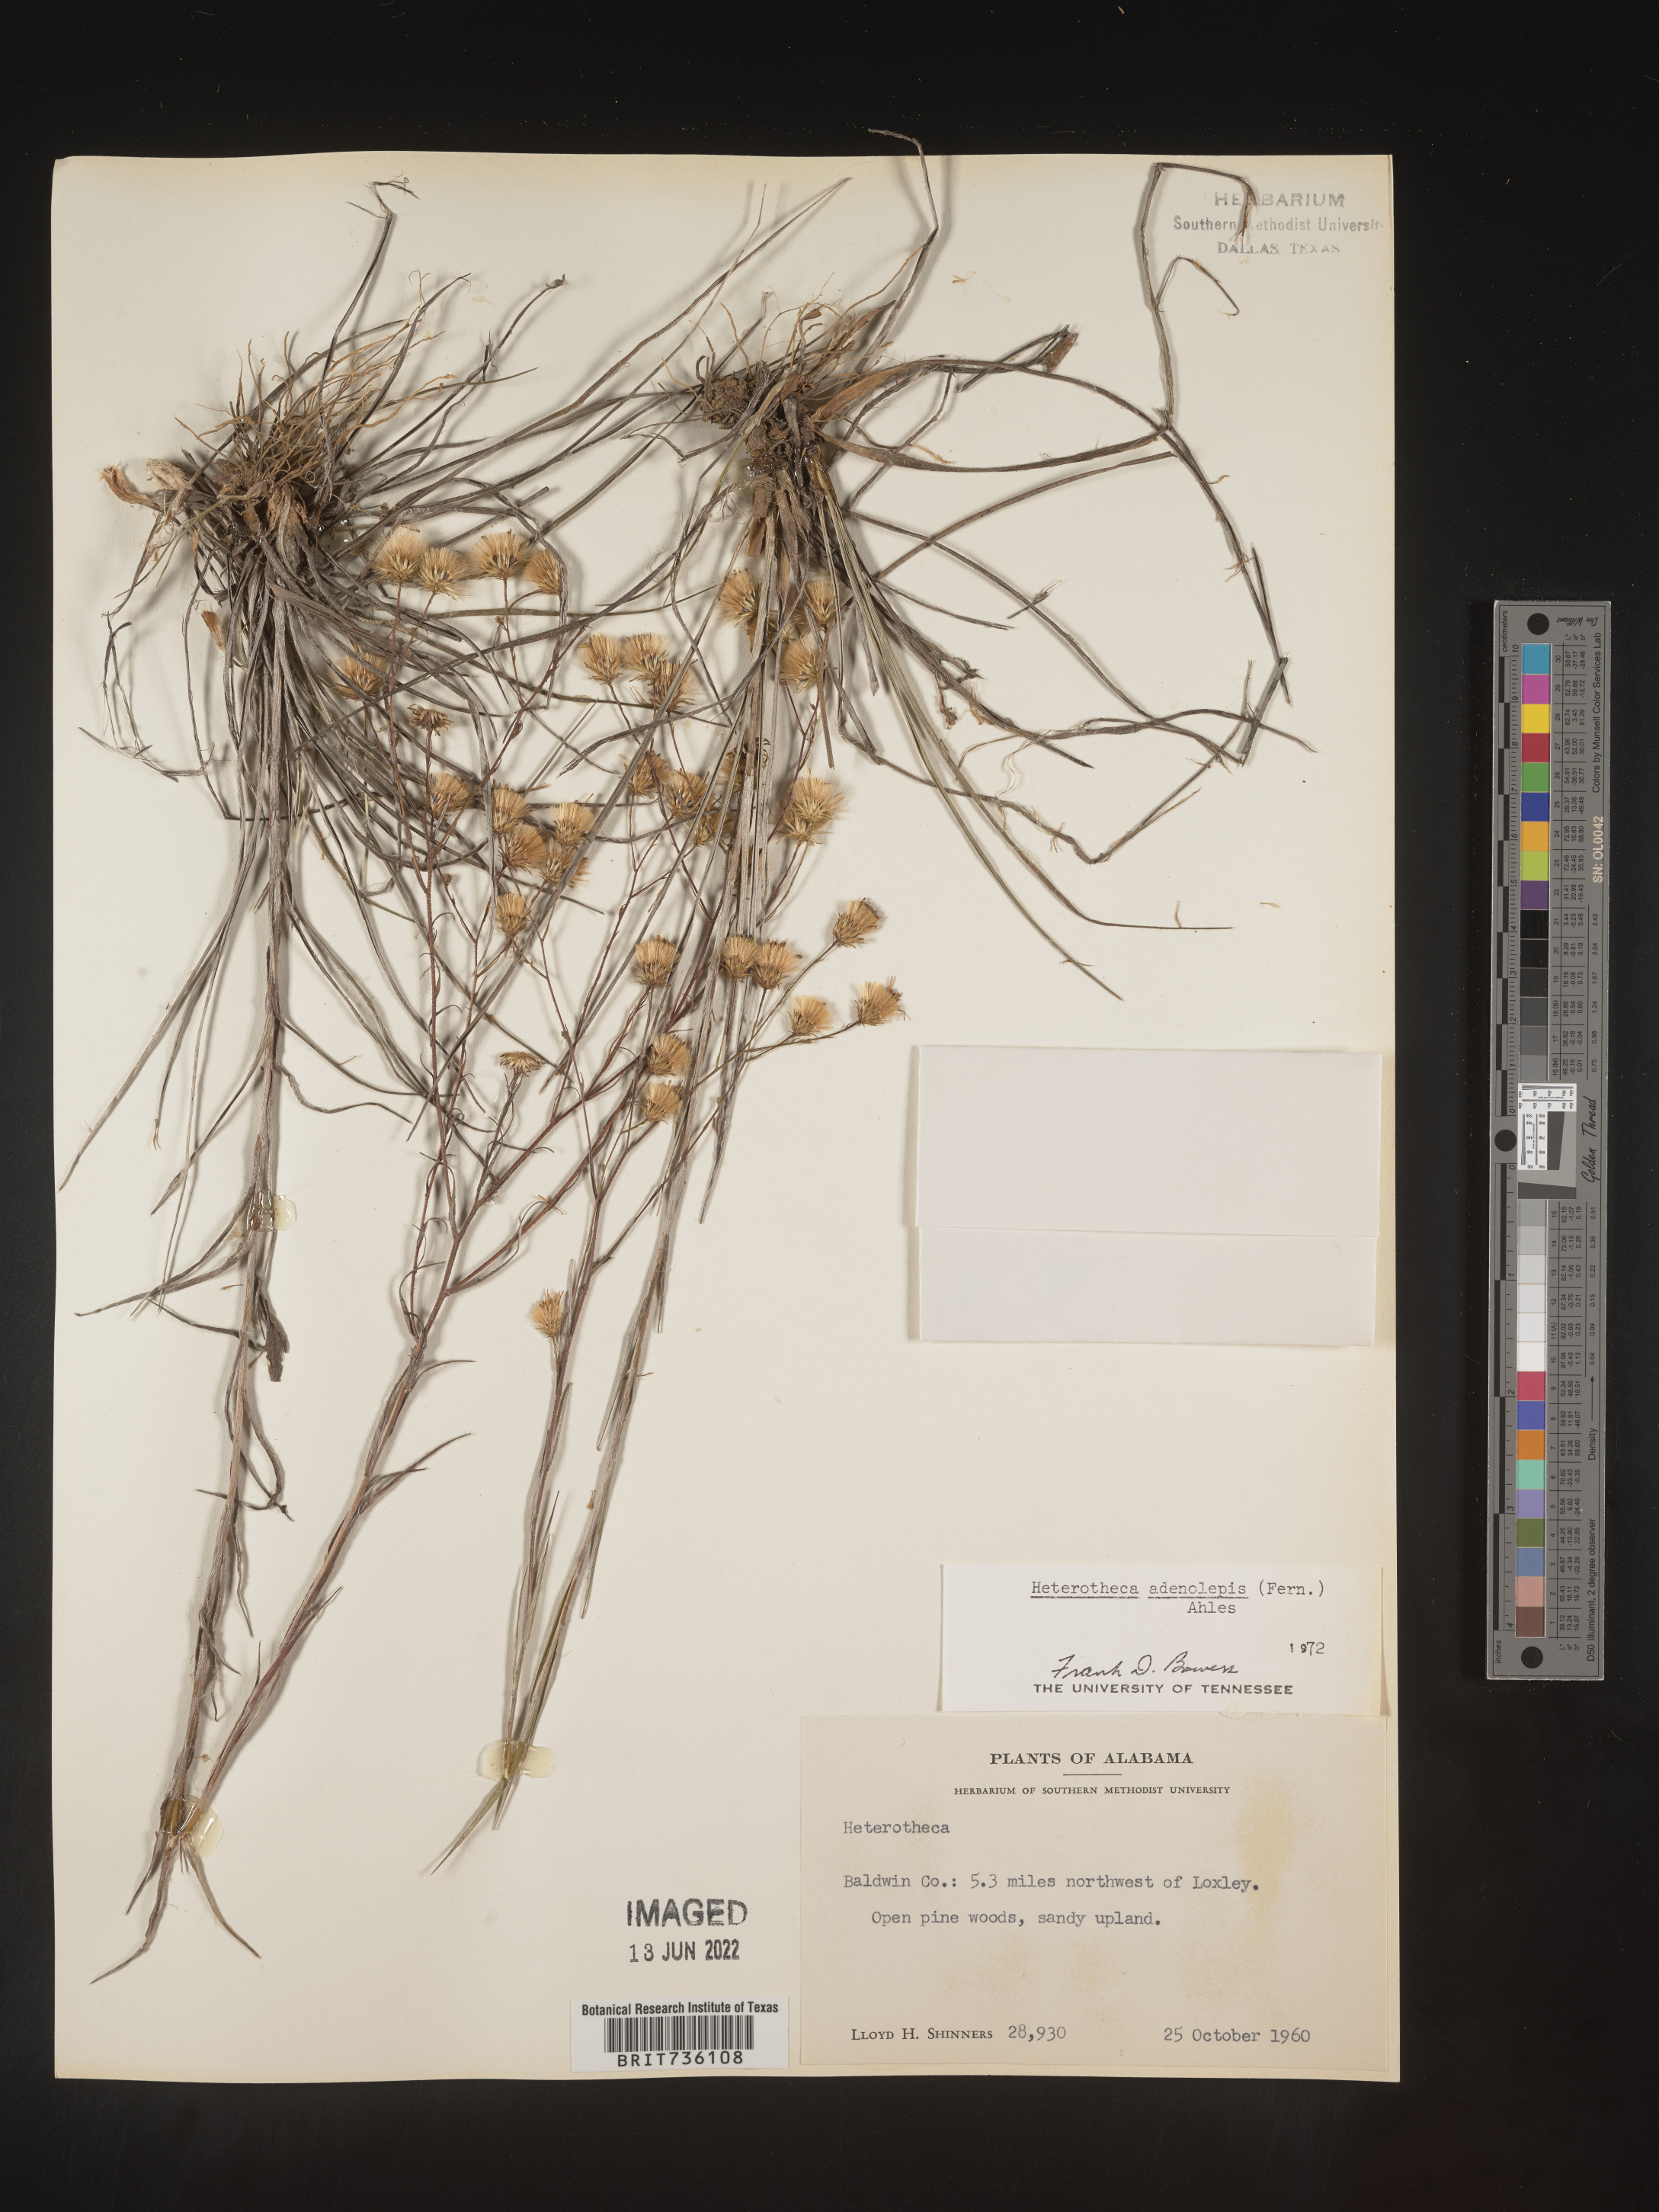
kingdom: Plantae
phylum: Tracheophyta
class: Magnoliopsida
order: Asterales
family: Asteraceae
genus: Pityopsis
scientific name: Pityopsis aspera
